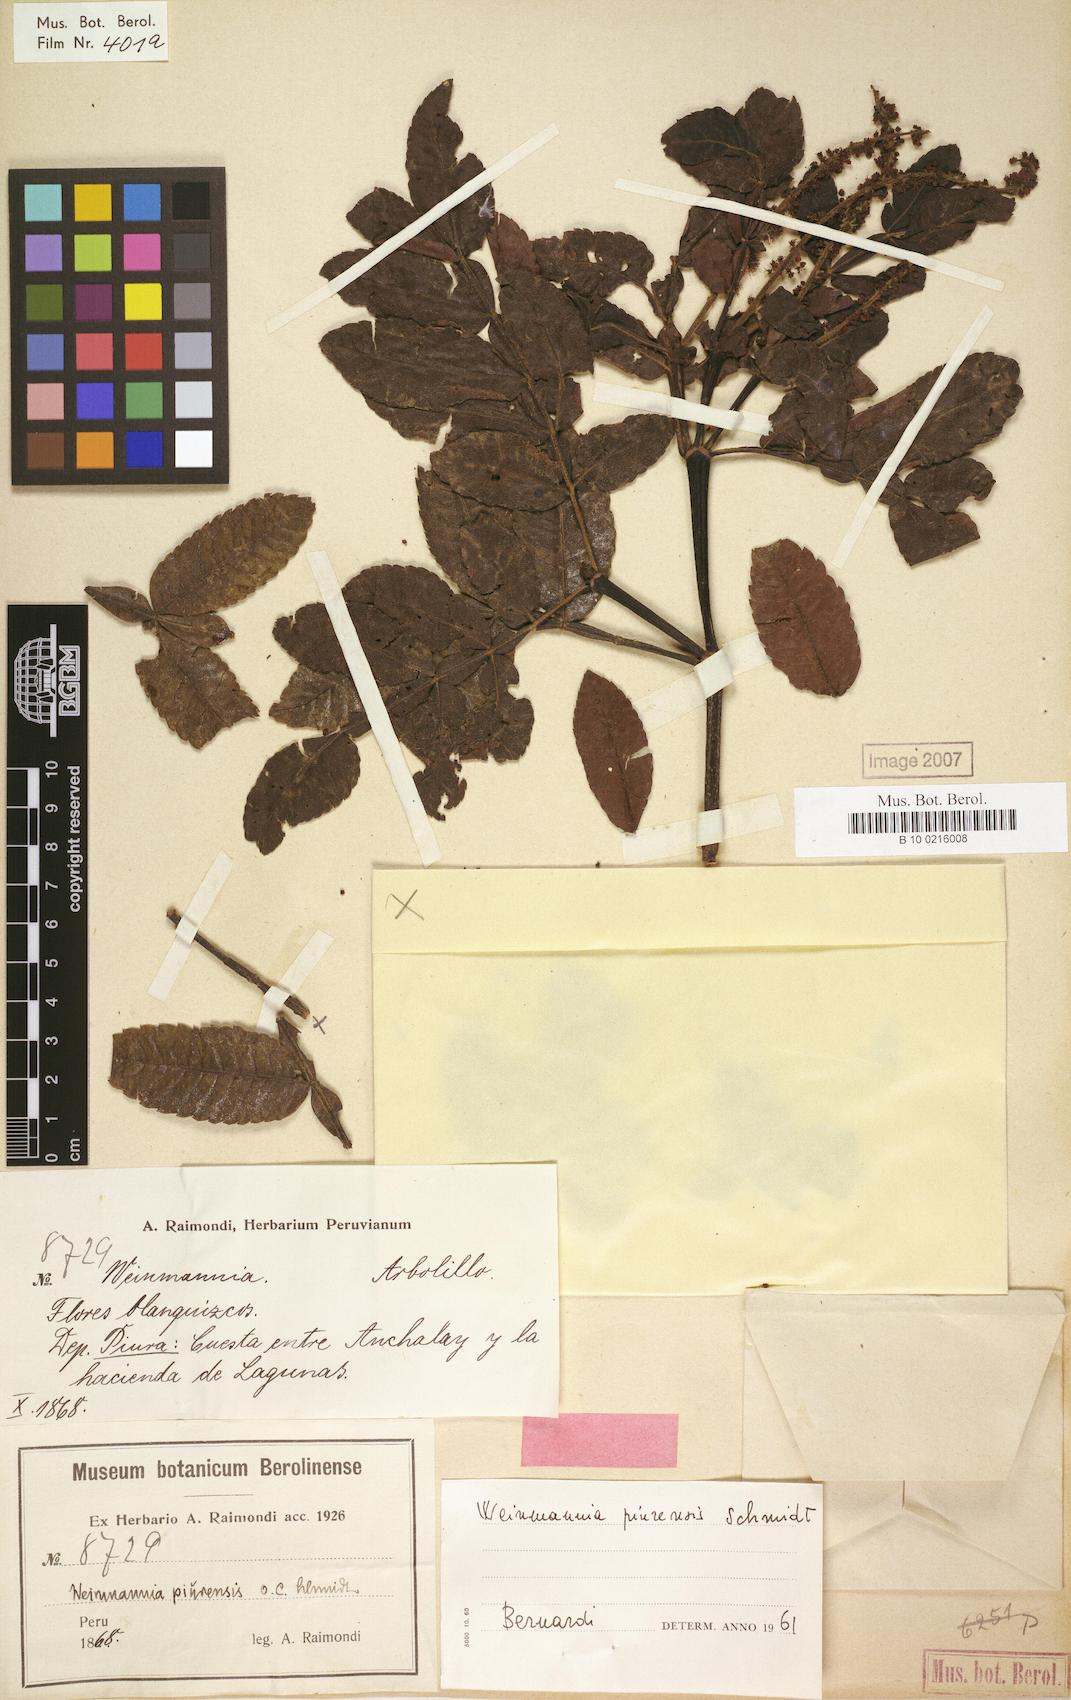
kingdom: Plantae
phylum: Tracheophyta
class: Magnoliopsida
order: Oxalidales
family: Cunoniaceae
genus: Weinmannia
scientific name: Weinmannia piurensis
